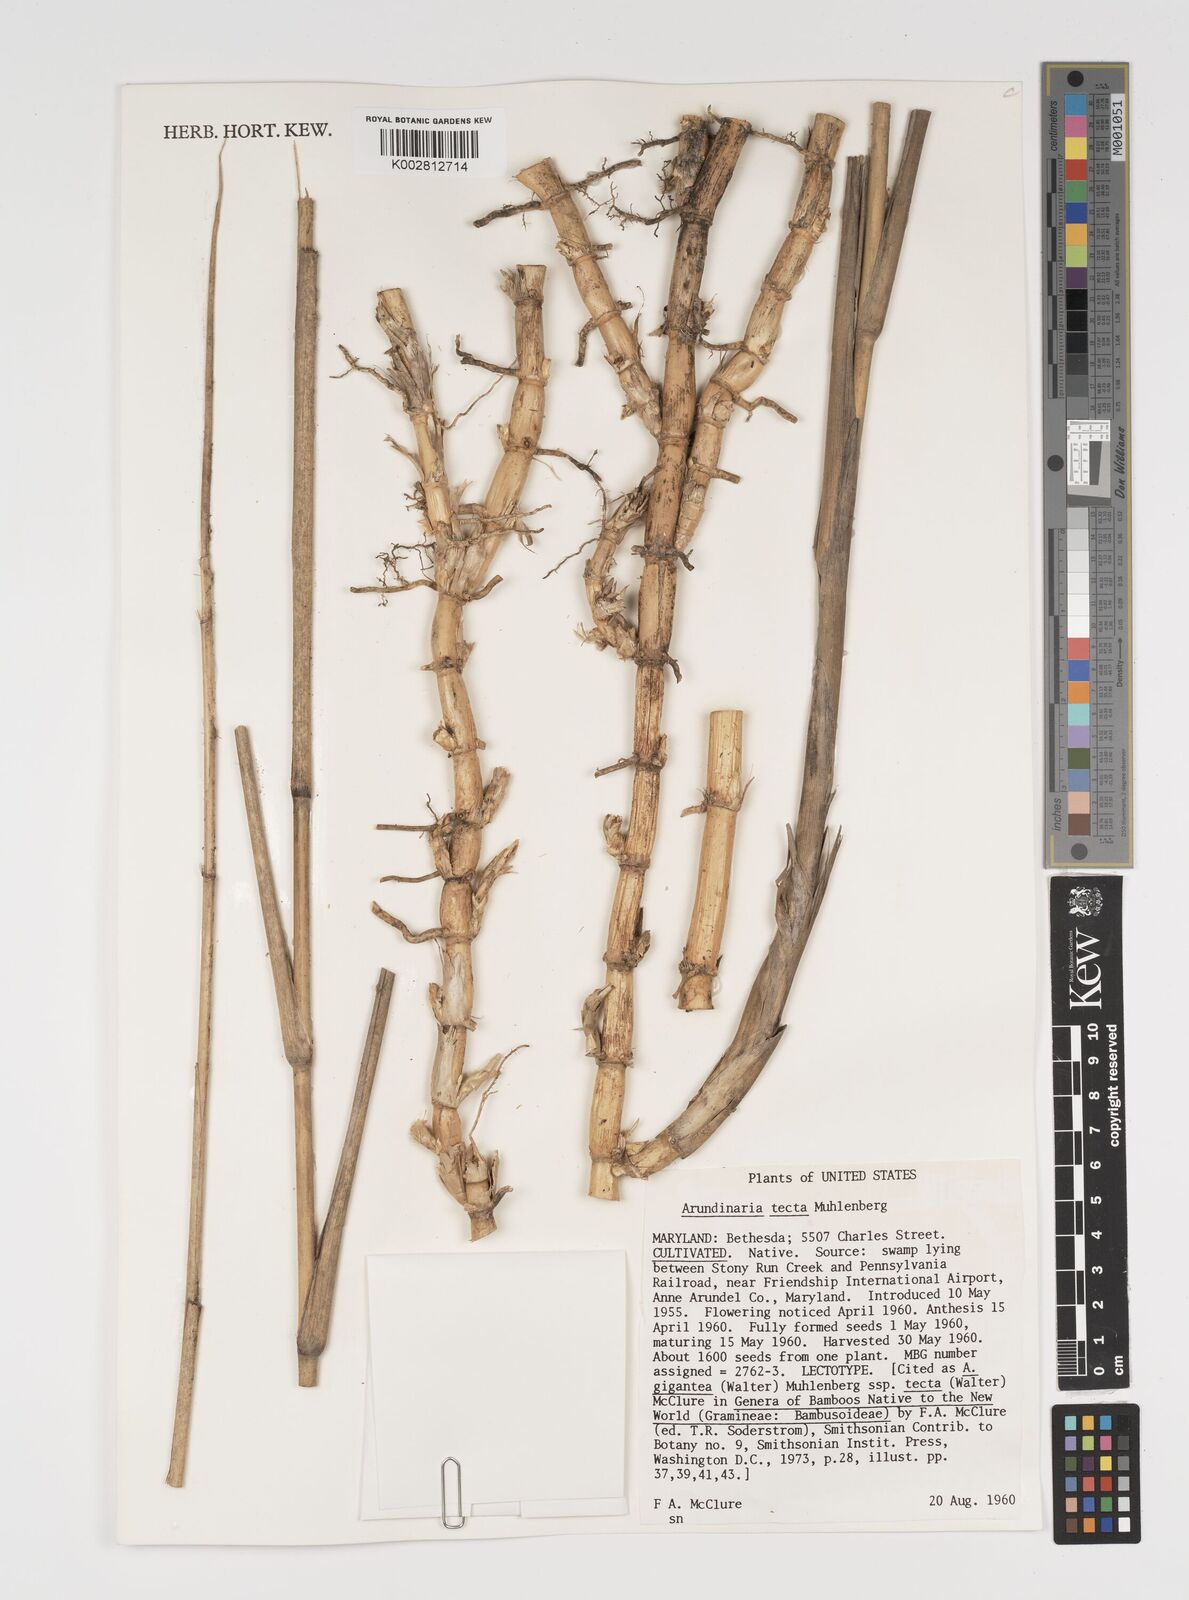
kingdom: Plantae
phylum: Tracheophyta
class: Liliopsida
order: Poales
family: Poaceae
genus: Arundinaria
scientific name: Arundinaria tecta
